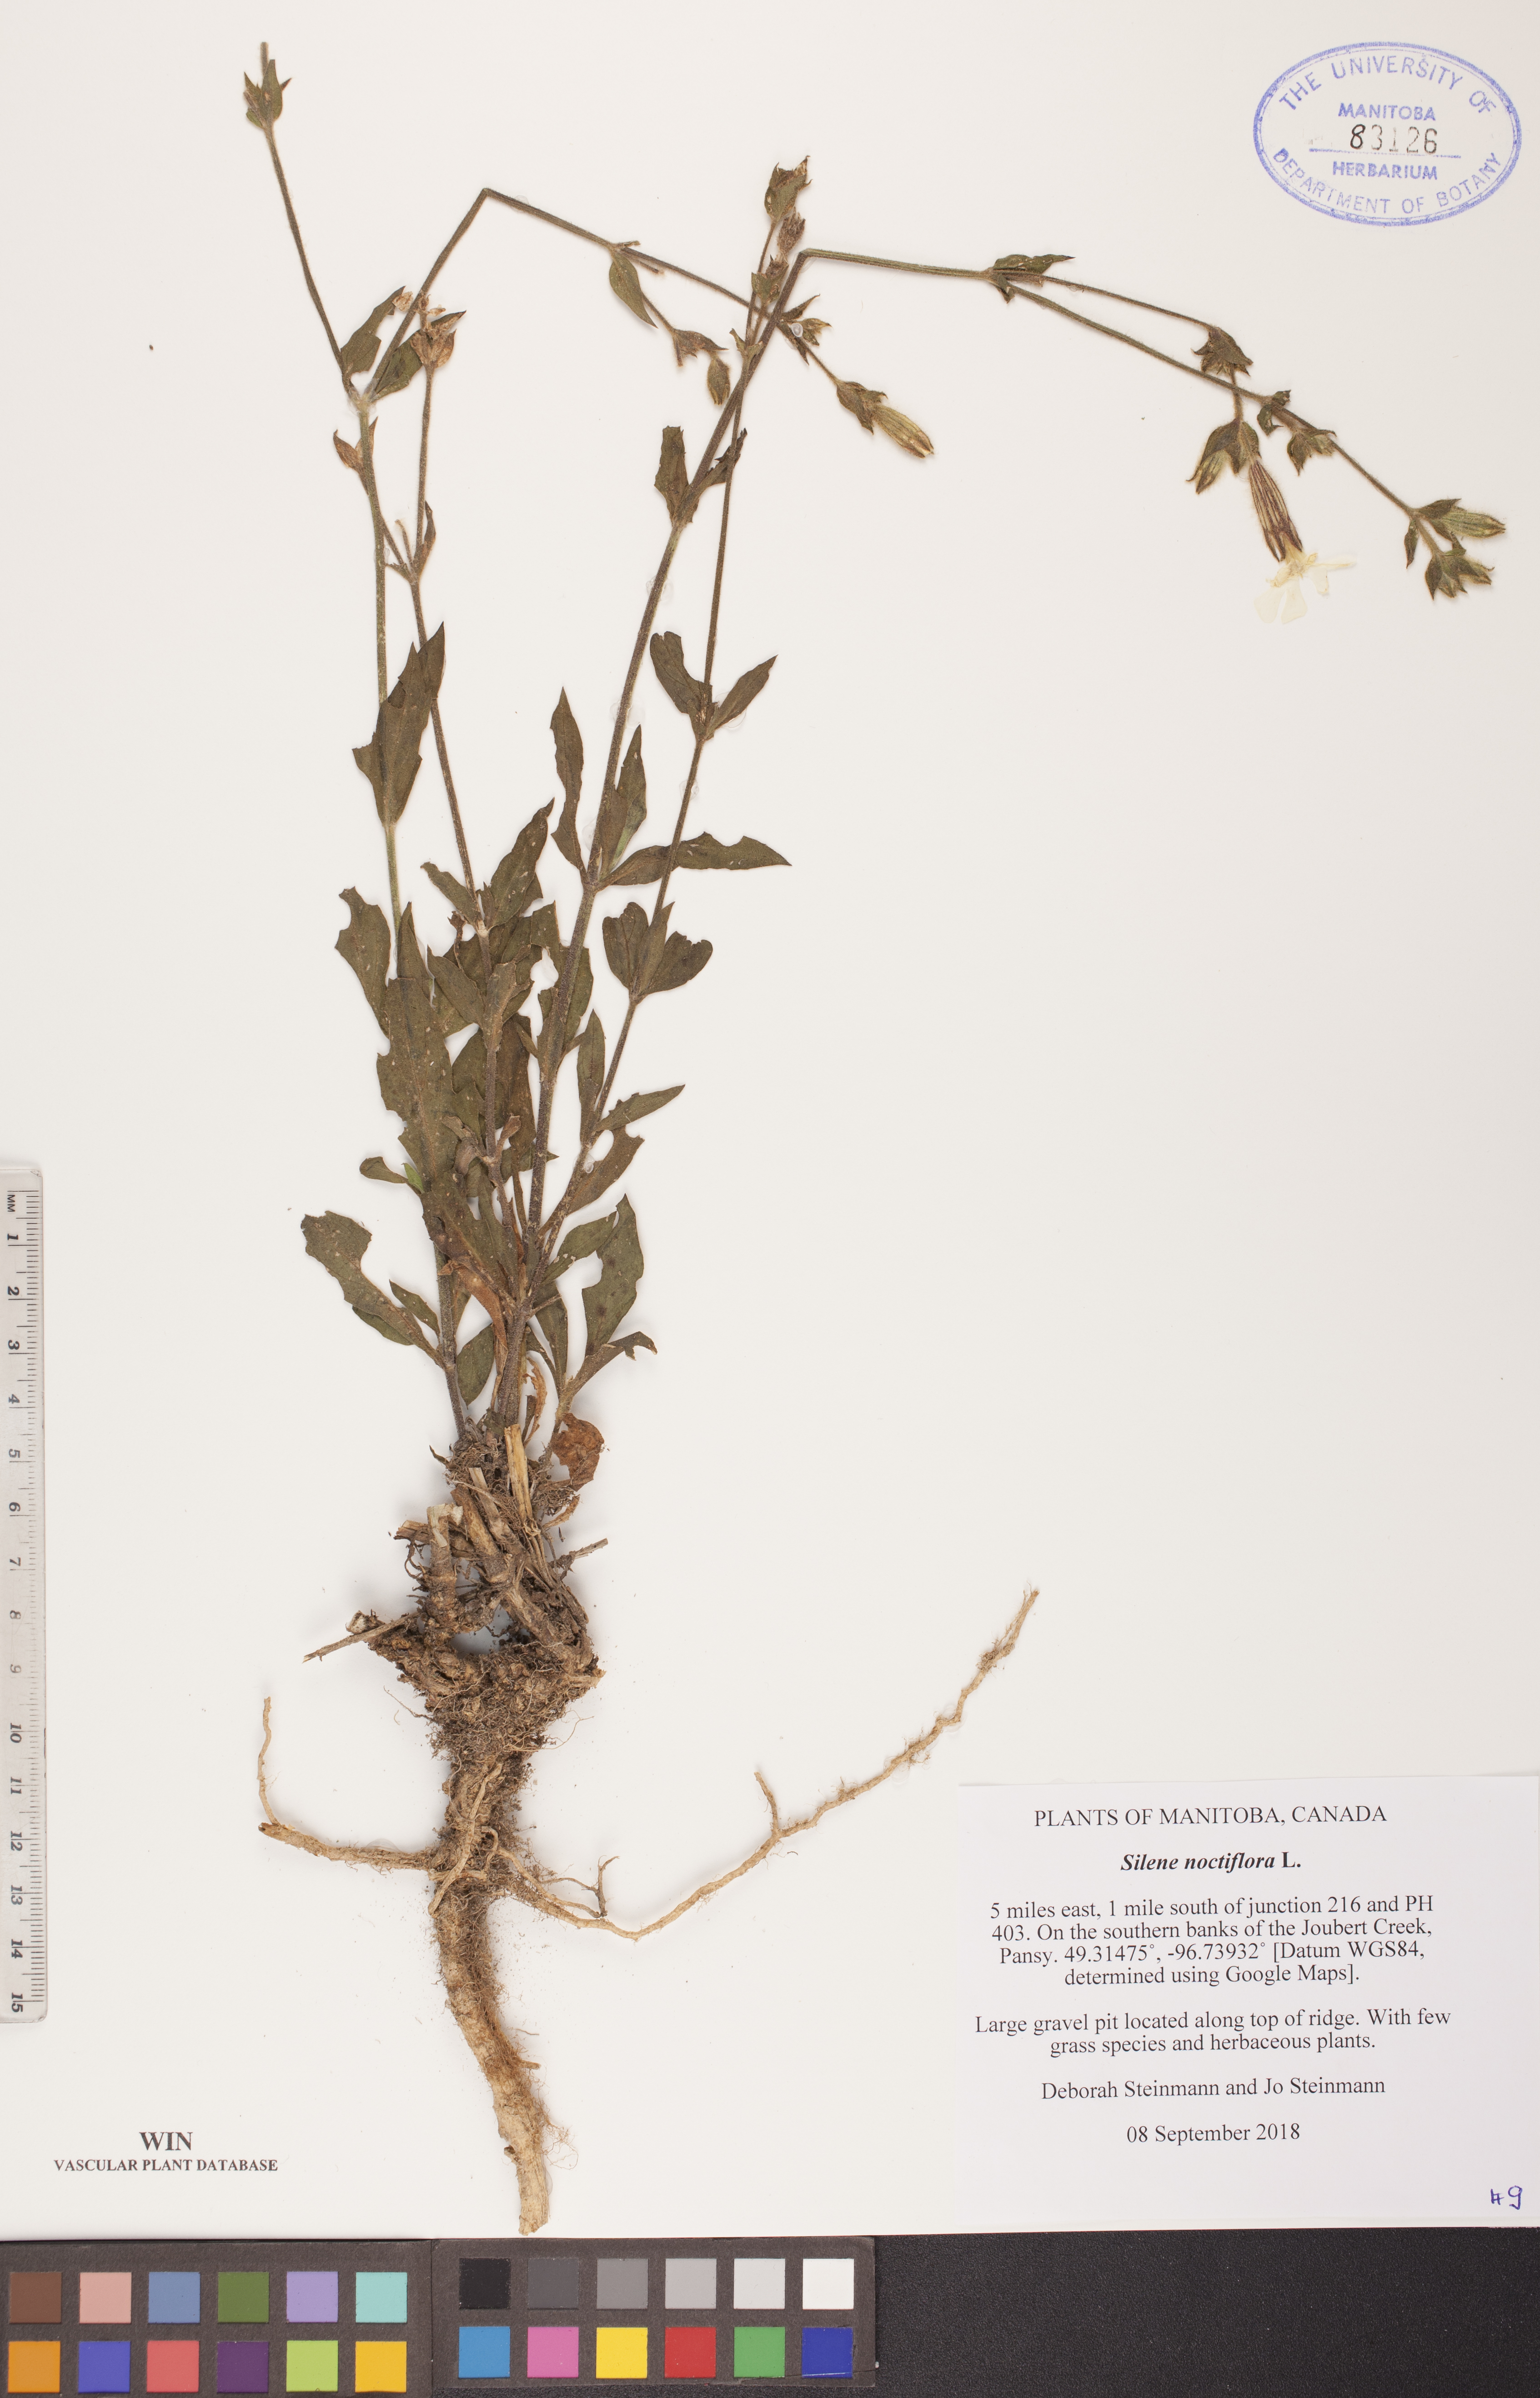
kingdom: Plantae
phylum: Tracheophyta
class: Magnoliopsida
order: Caryophyllales
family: Caryophyllaceae
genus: Silene
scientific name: Silene noctiflora
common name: Night-flowering catchfly
